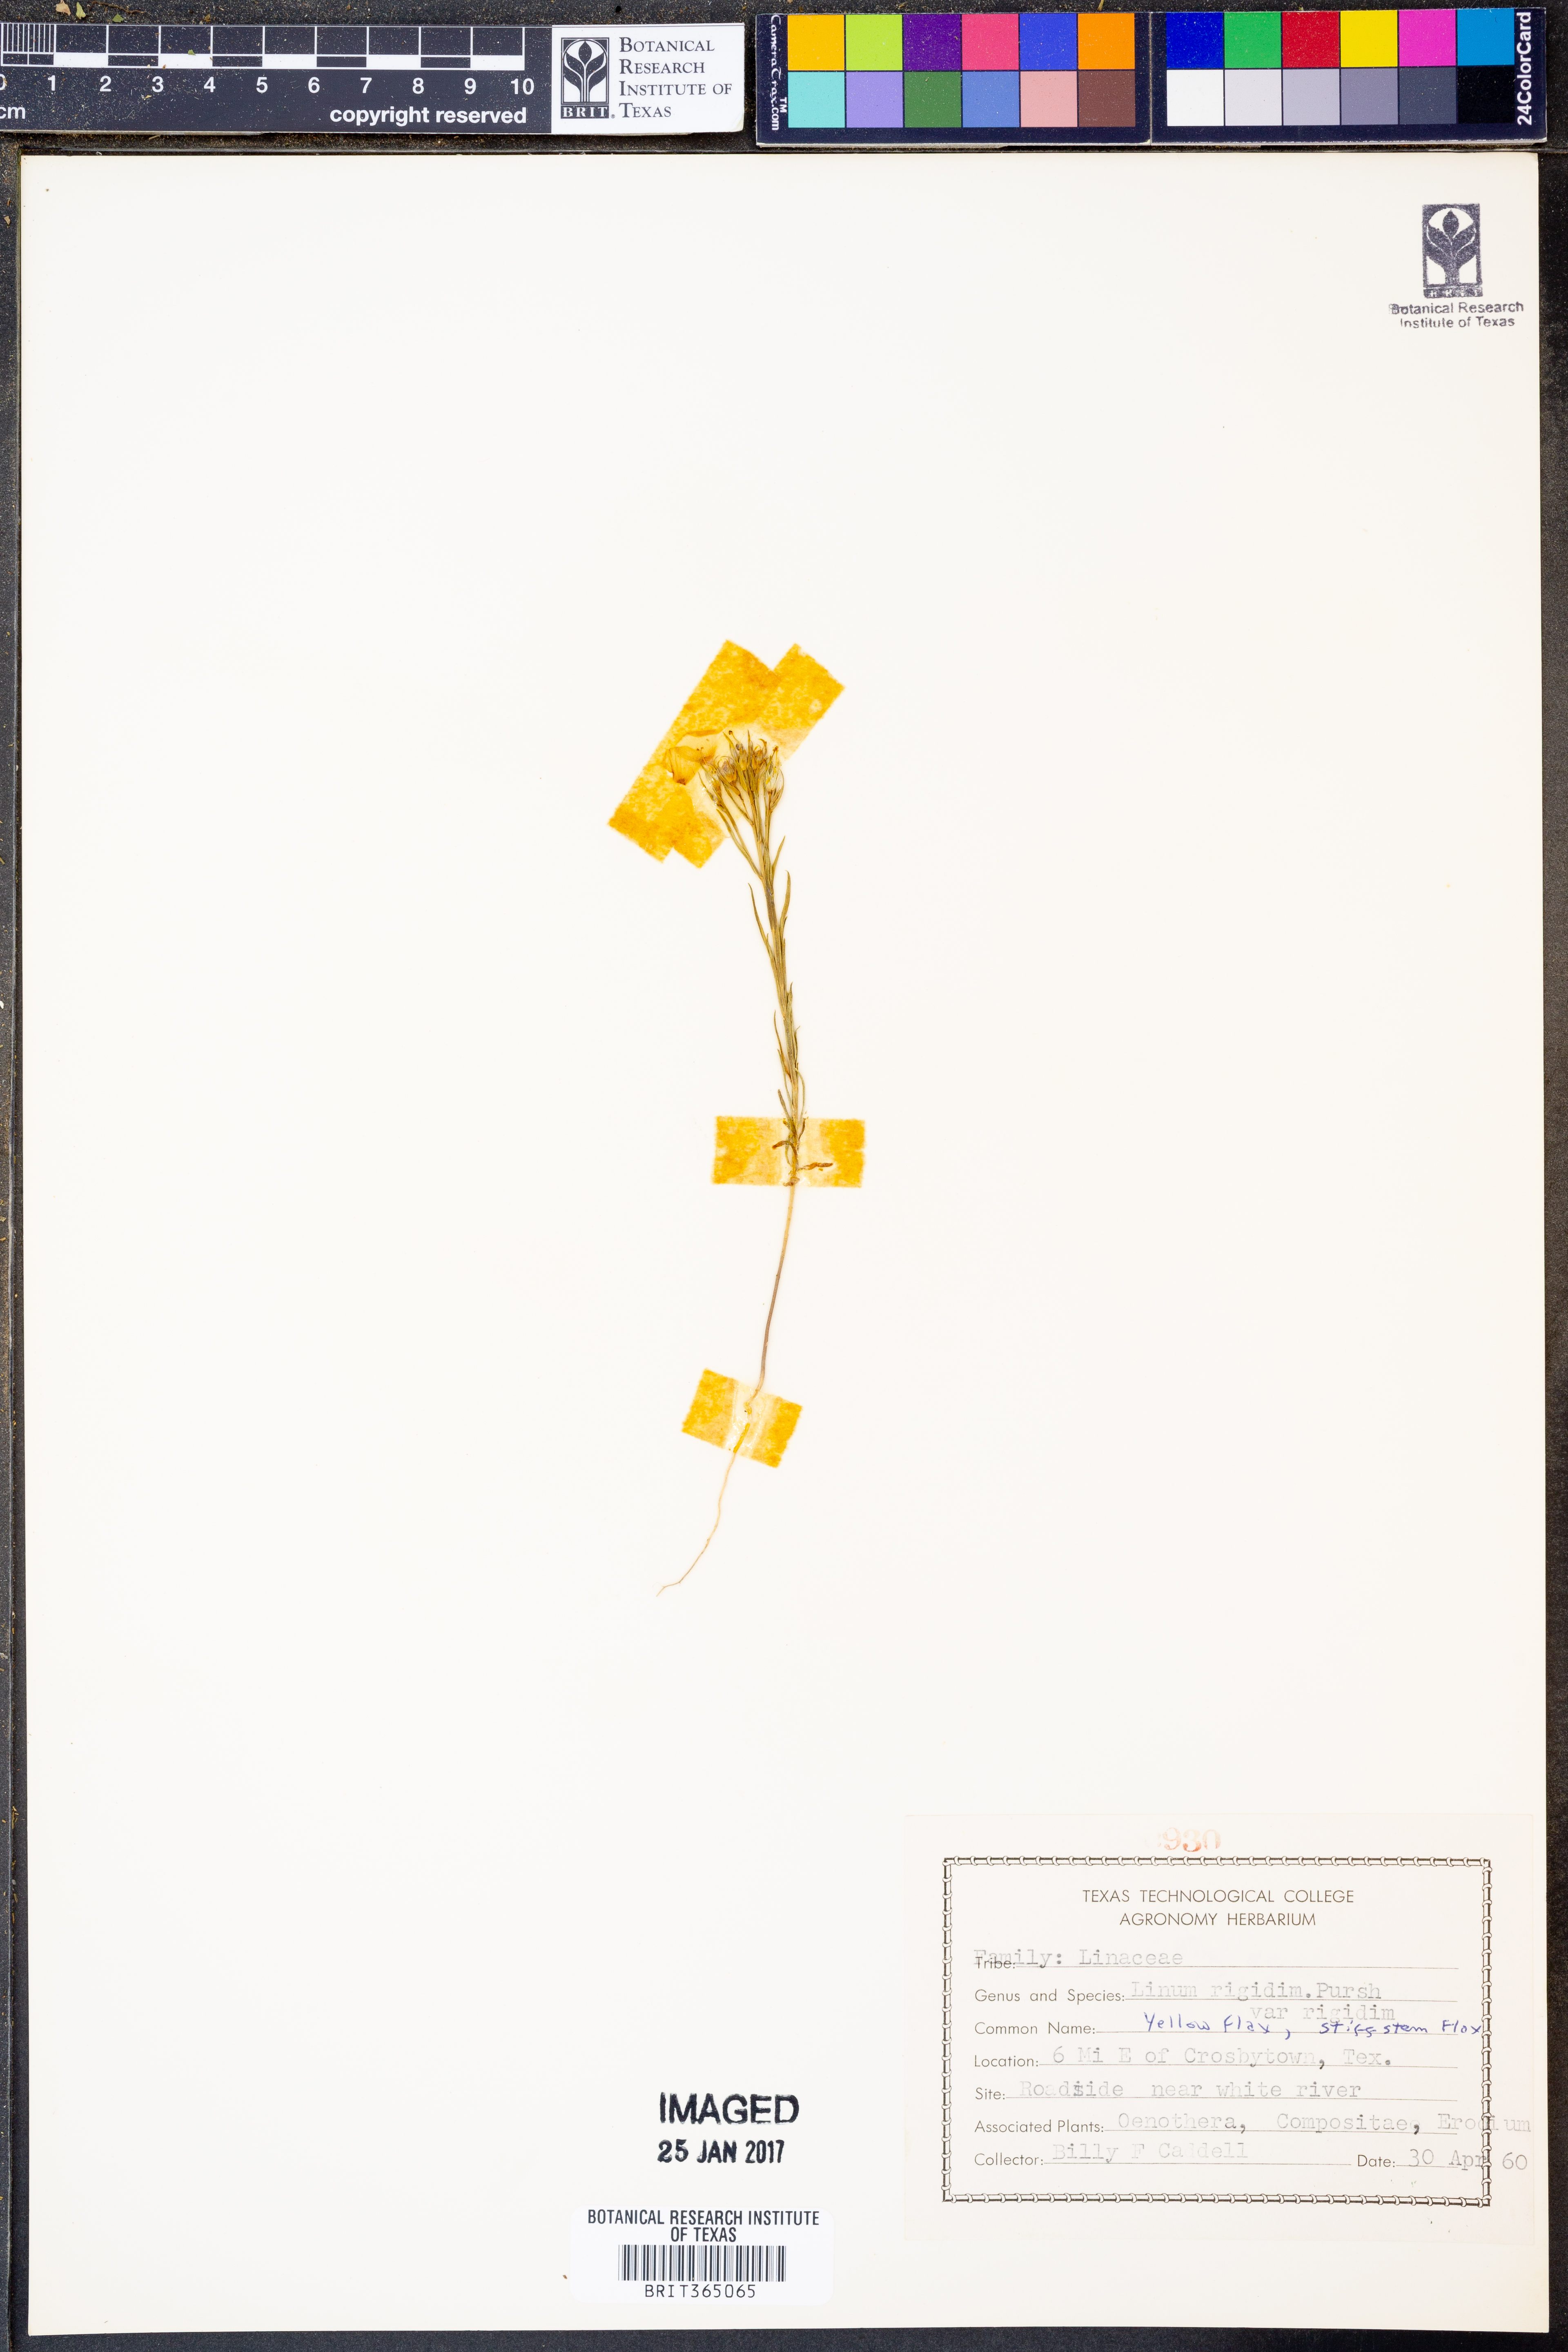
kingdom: Plantae
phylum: Tracheophyta
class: Magnoliopsida
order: Malpighiales
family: Linaceae
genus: Linum
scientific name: Linum rigidum
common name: Stiff-stem flax
